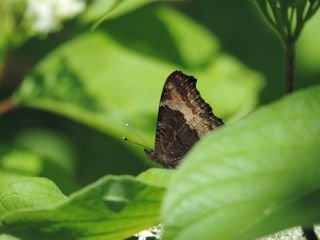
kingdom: Animalia
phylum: Arthropoda
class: Insecta
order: Lepidoptera
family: Nymphalidae
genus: Aglais
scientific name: Aglais milberti
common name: Milbert's Tortoiseshell
